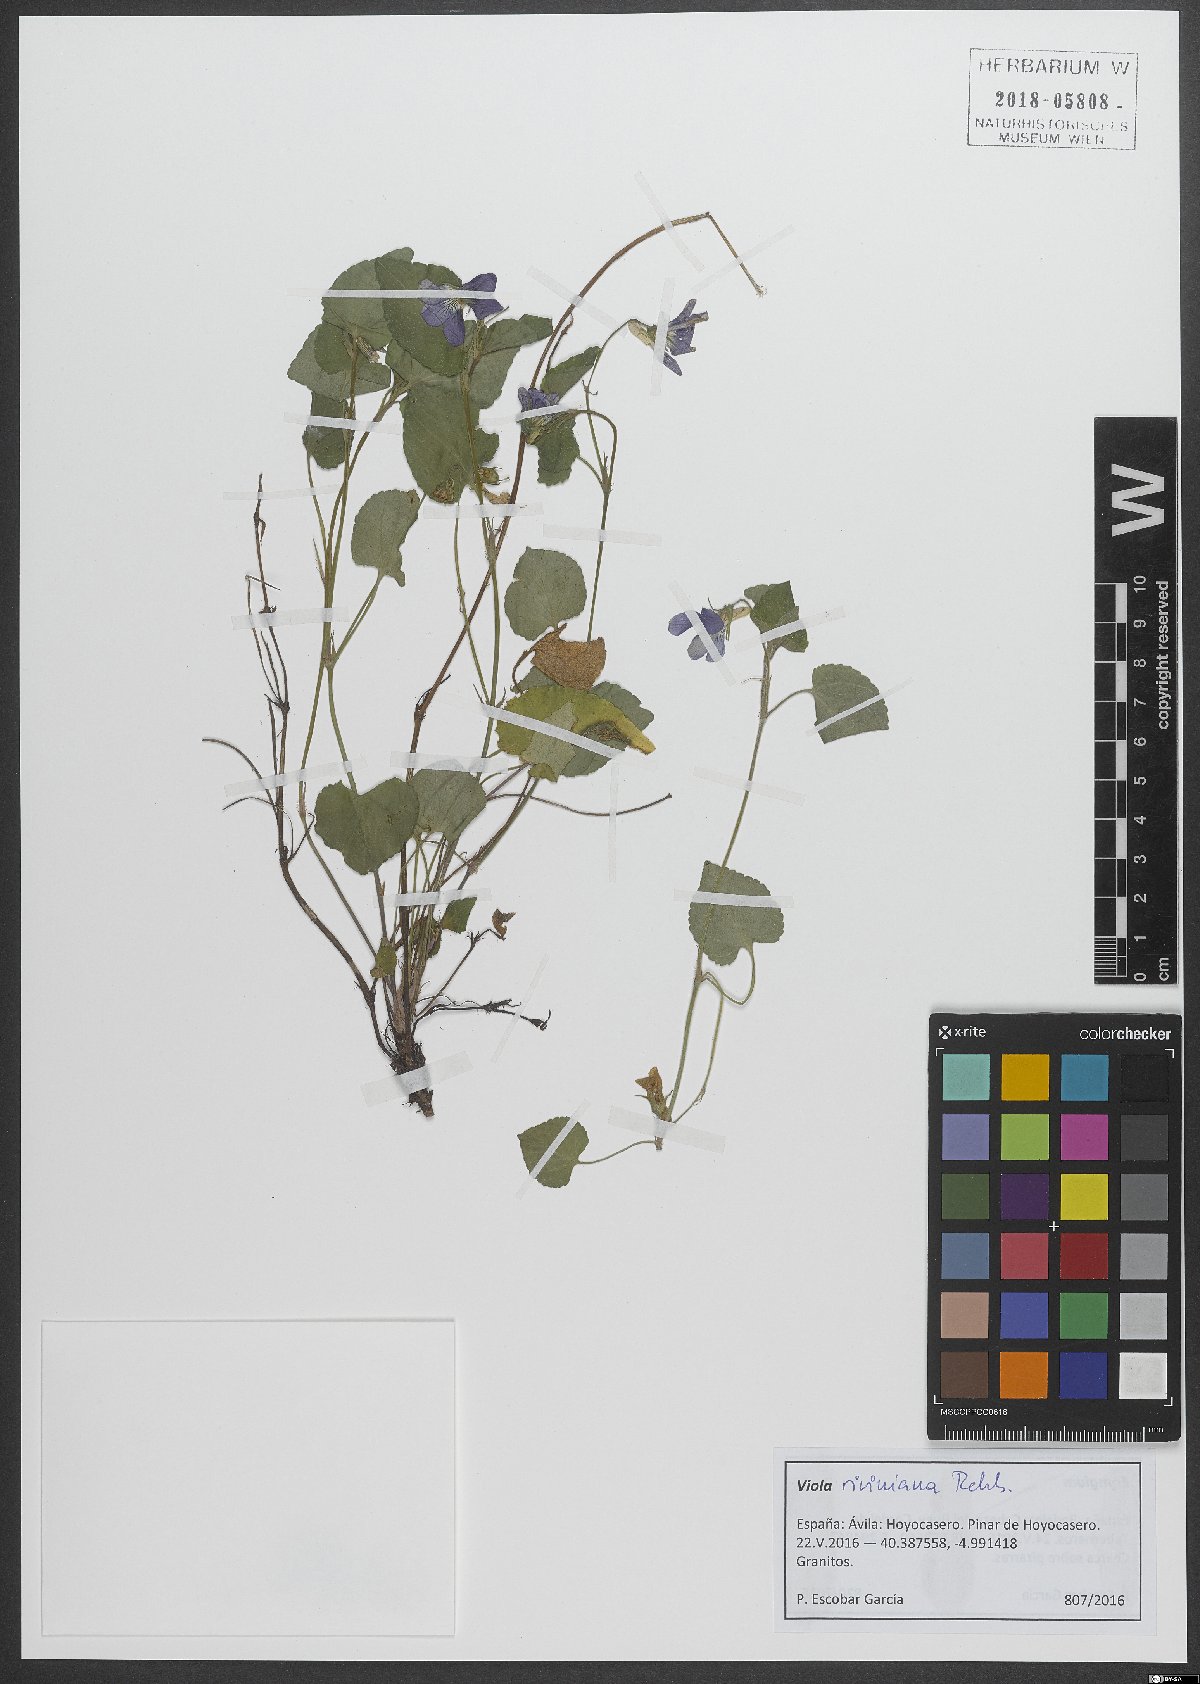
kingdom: Plantae
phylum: Tracheophyta
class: Magnoliopsida
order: Malpighiales
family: Violaceae
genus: Viola
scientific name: Viola riviniana
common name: Common dog-violet
